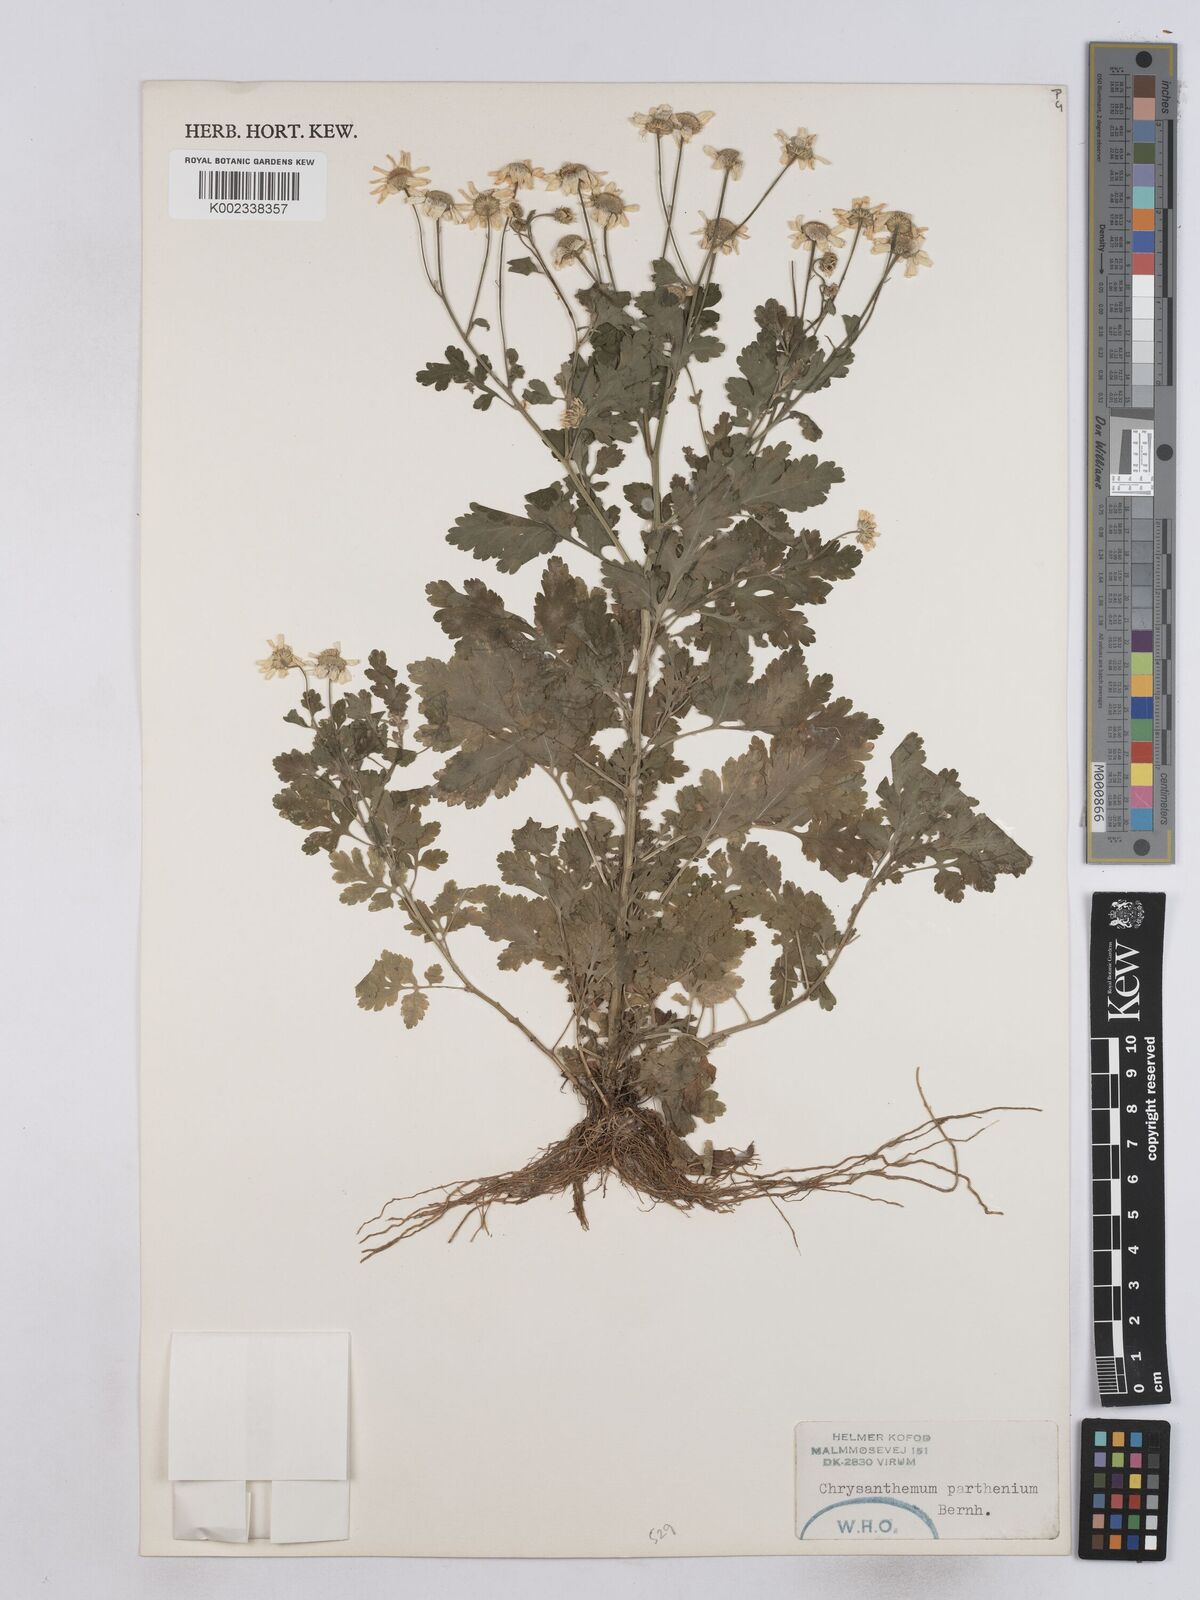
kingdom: Plantae
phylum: Tracheophyta
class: Magnoliopsida
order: Asterales
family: Asteraceae
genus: Tanacetum
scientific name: Tanacetum parthenium
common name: Feverfew
